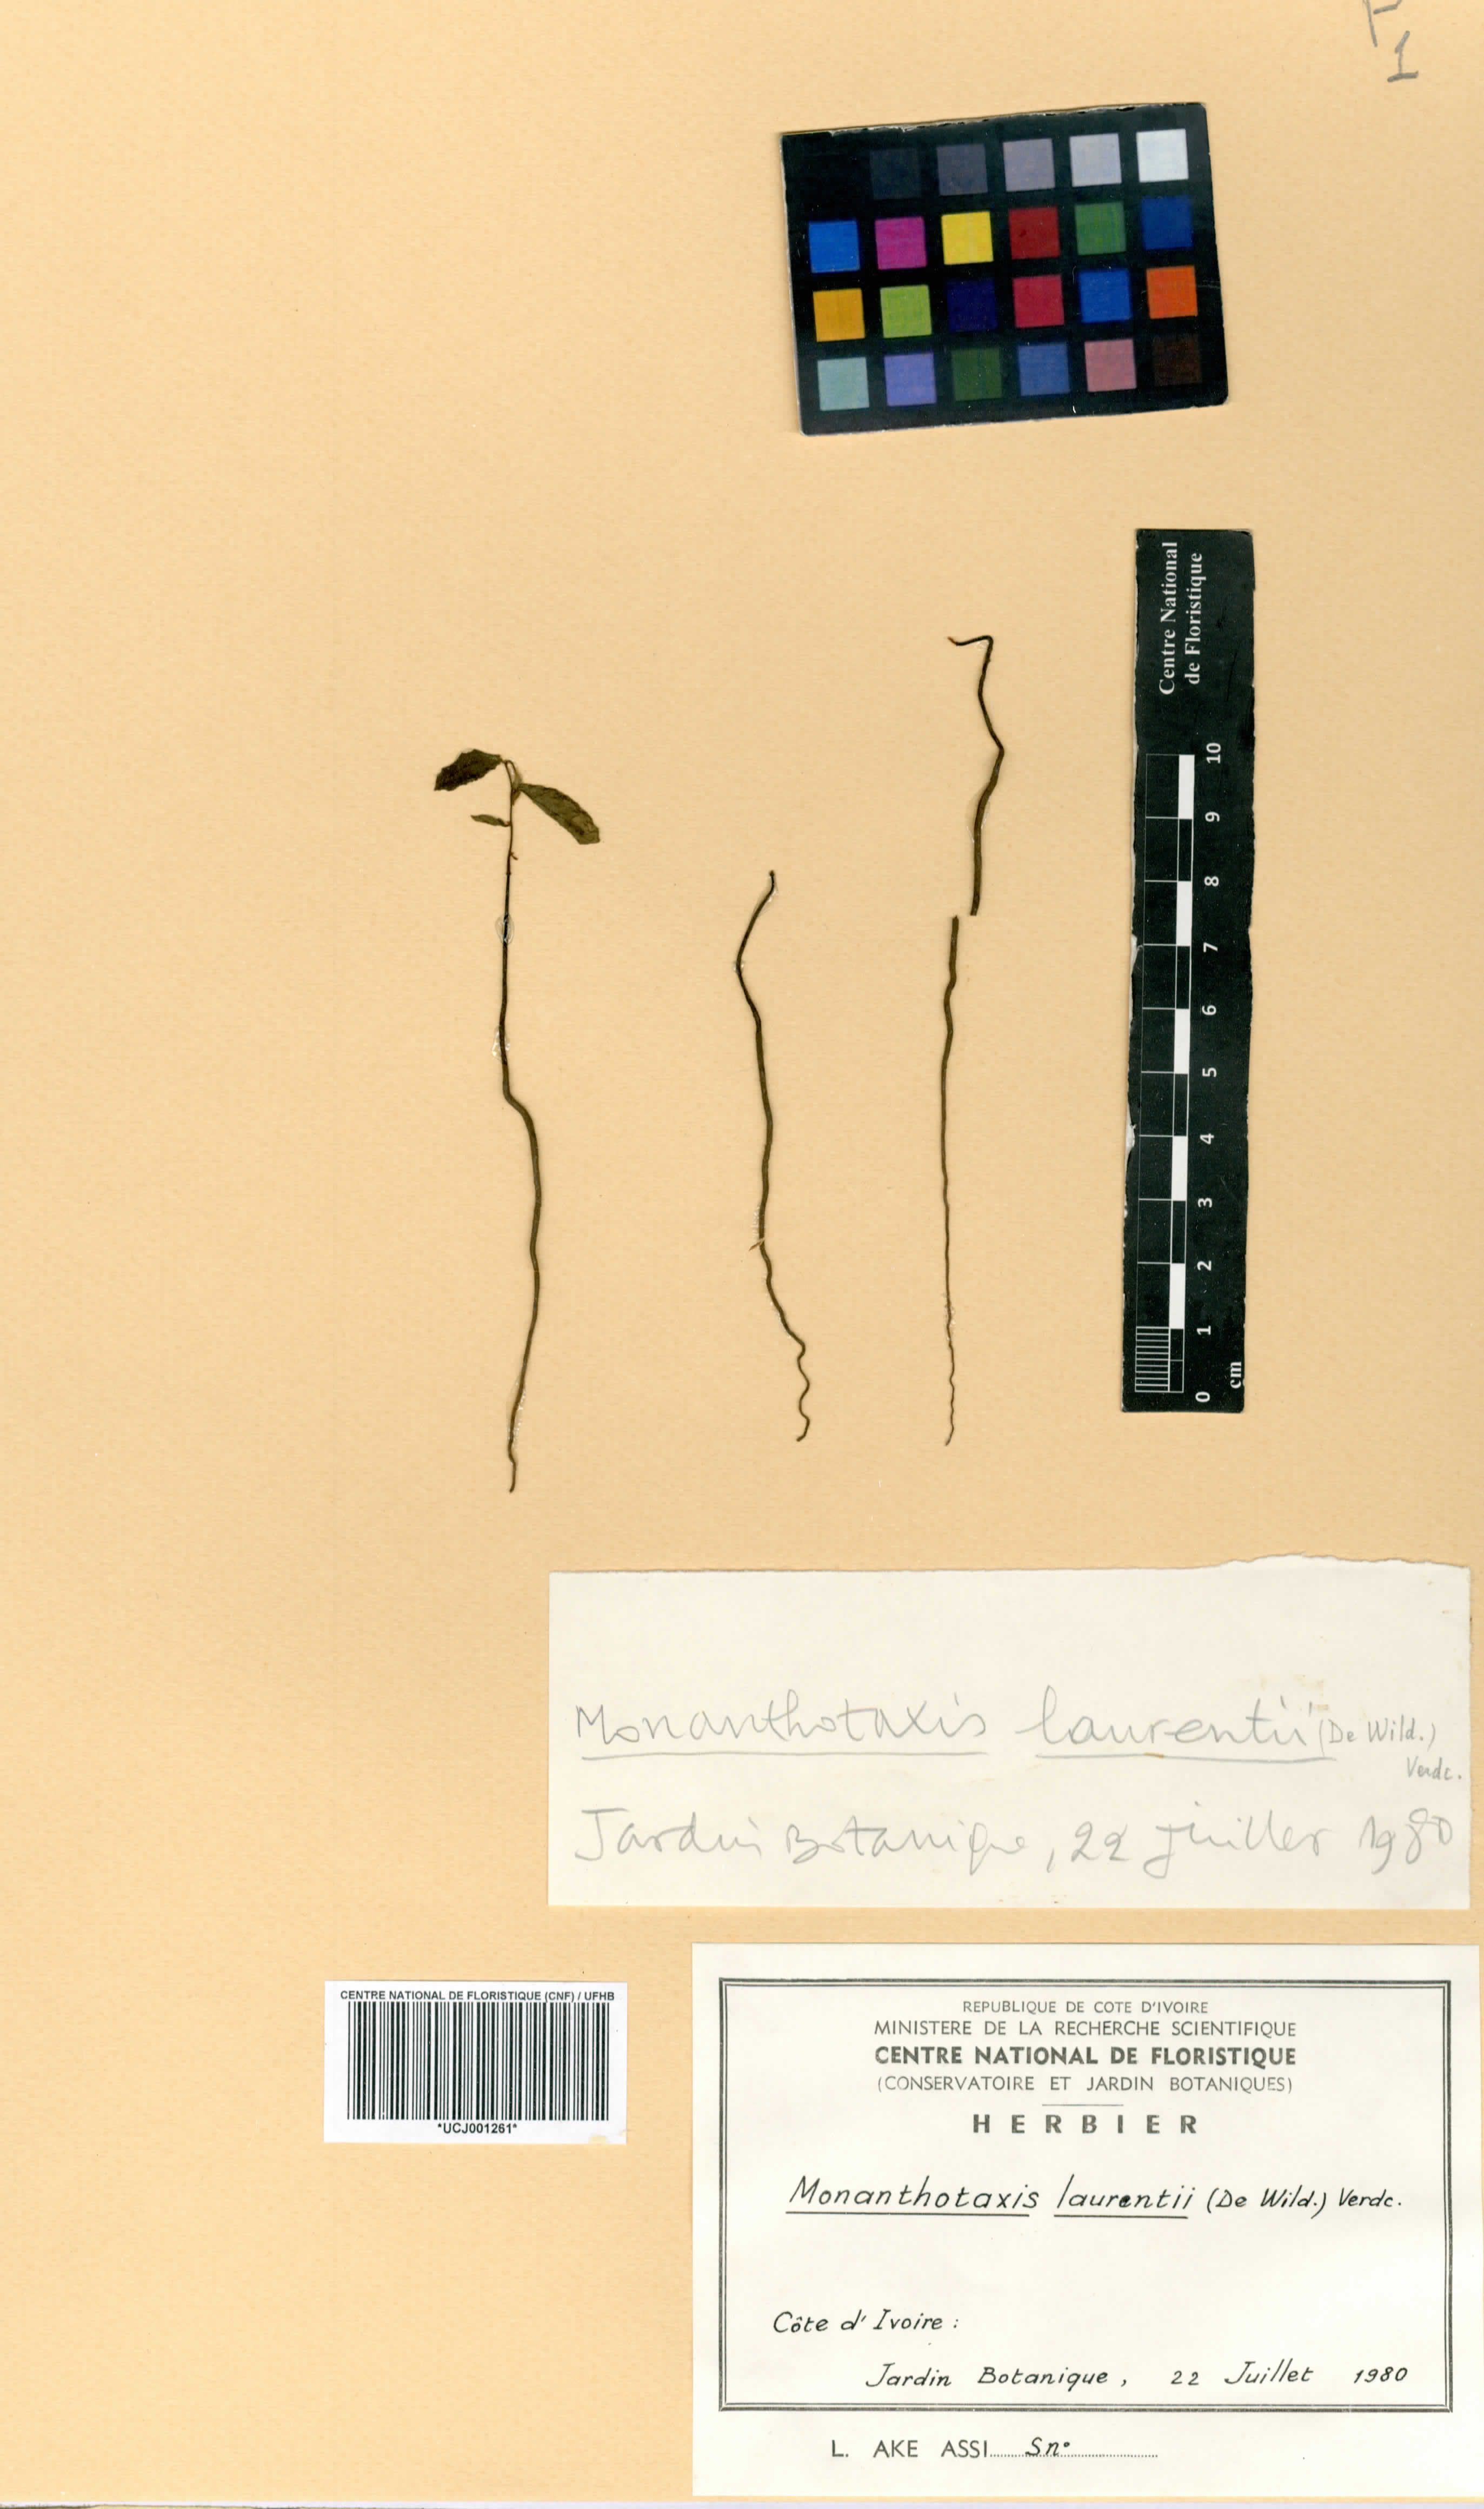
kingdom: Plantae
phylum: Tracheophyta
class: Magnoliopsida
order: Magnoliales
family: Annonaceae
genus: Monanthotaxis
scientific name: Monanthotaxis laurentii
